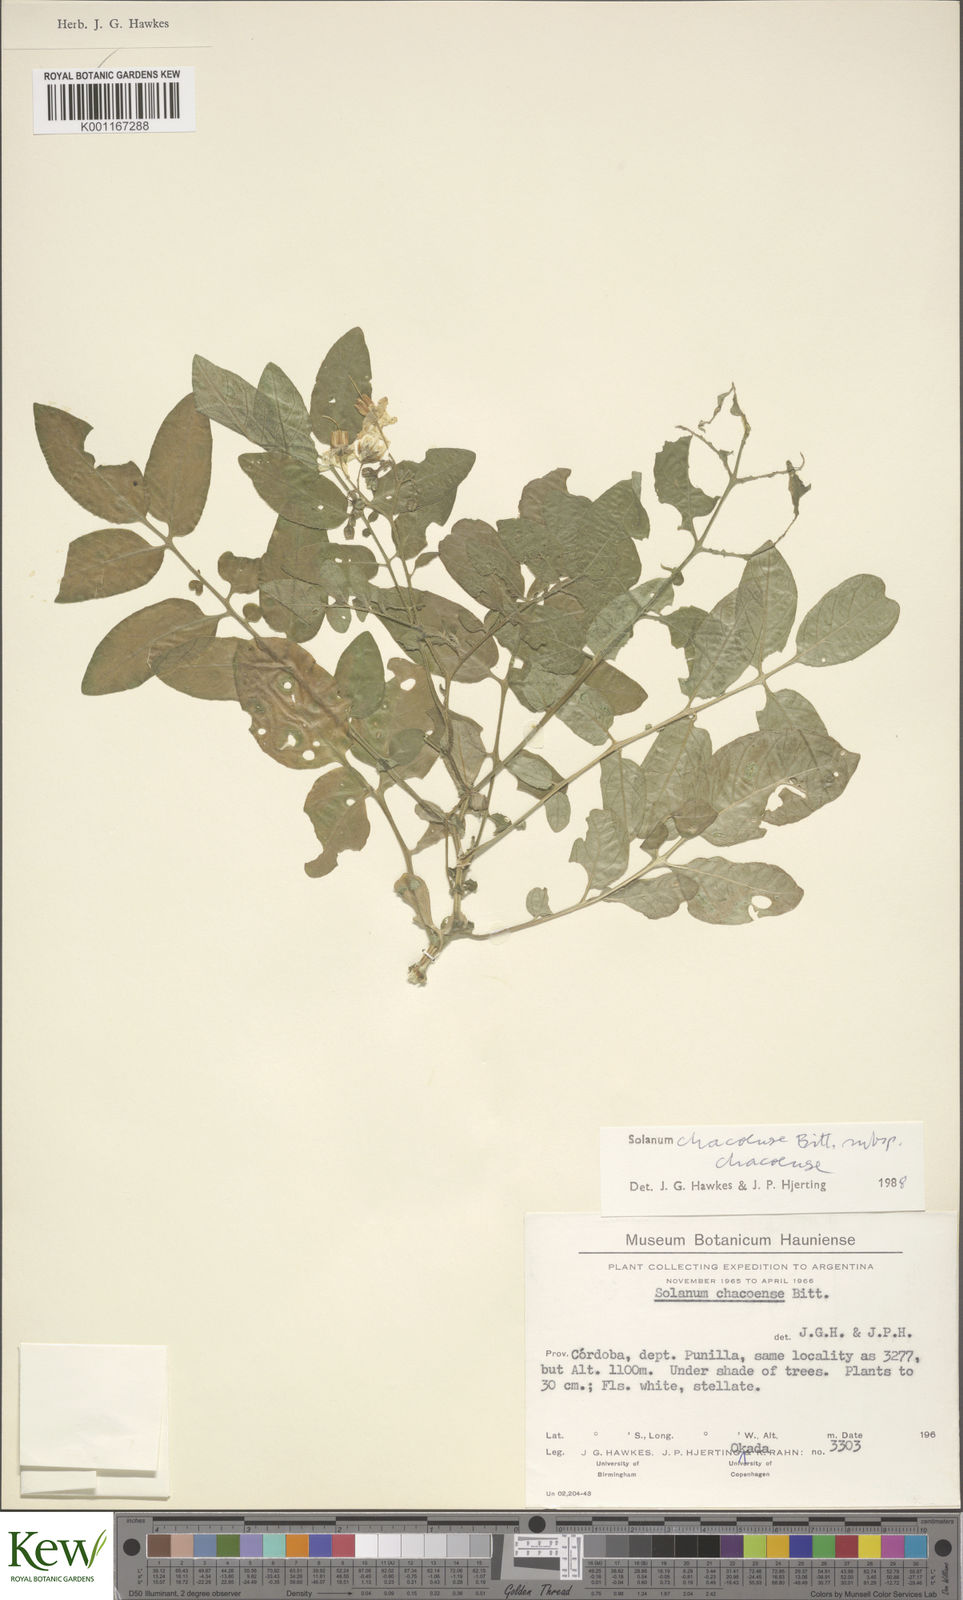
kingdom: Plantae
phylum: Tracheophyta
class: Magnoliopsida
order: Solanales
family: Solanaceae
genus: Solanum
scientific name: Solanum
